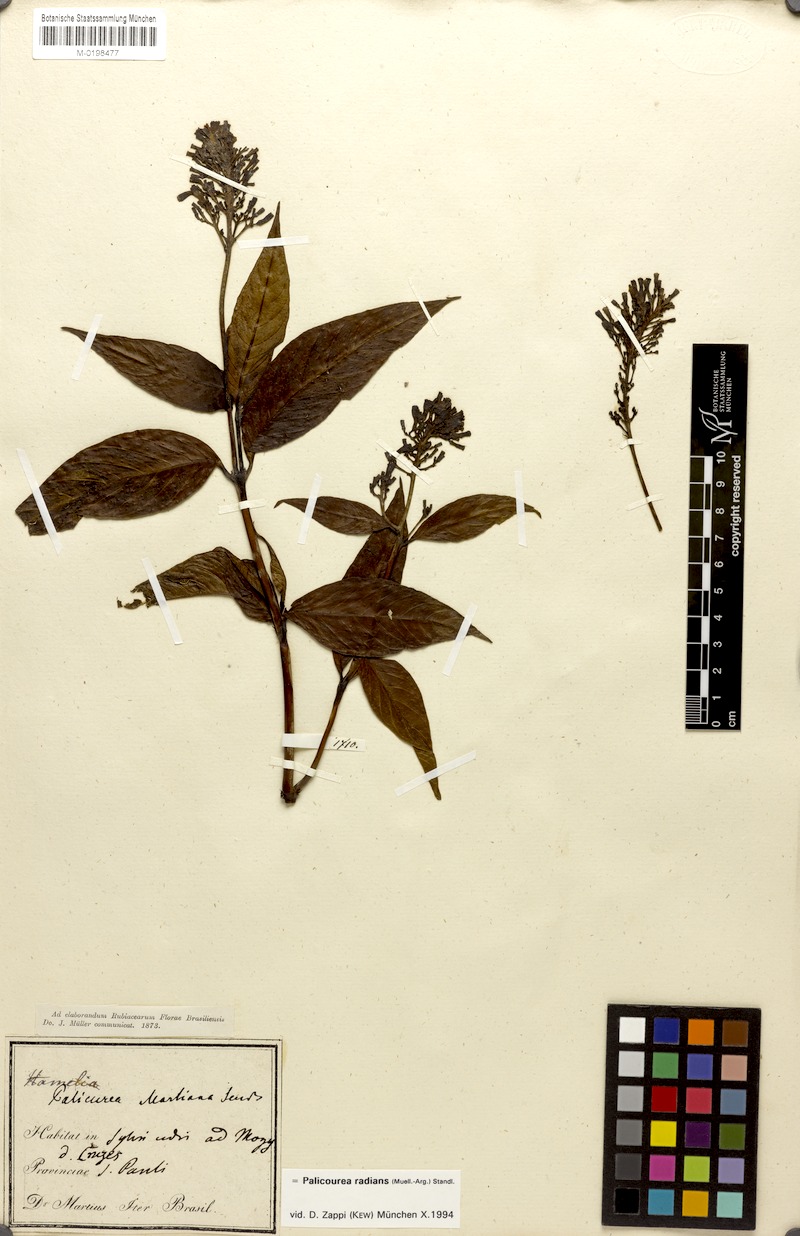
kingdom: Plantae
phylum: Tracheophyta
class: Magnoliopsida
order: Gentianales
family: Rubiaceae
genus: Palicourea
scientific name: Palicourea radians
